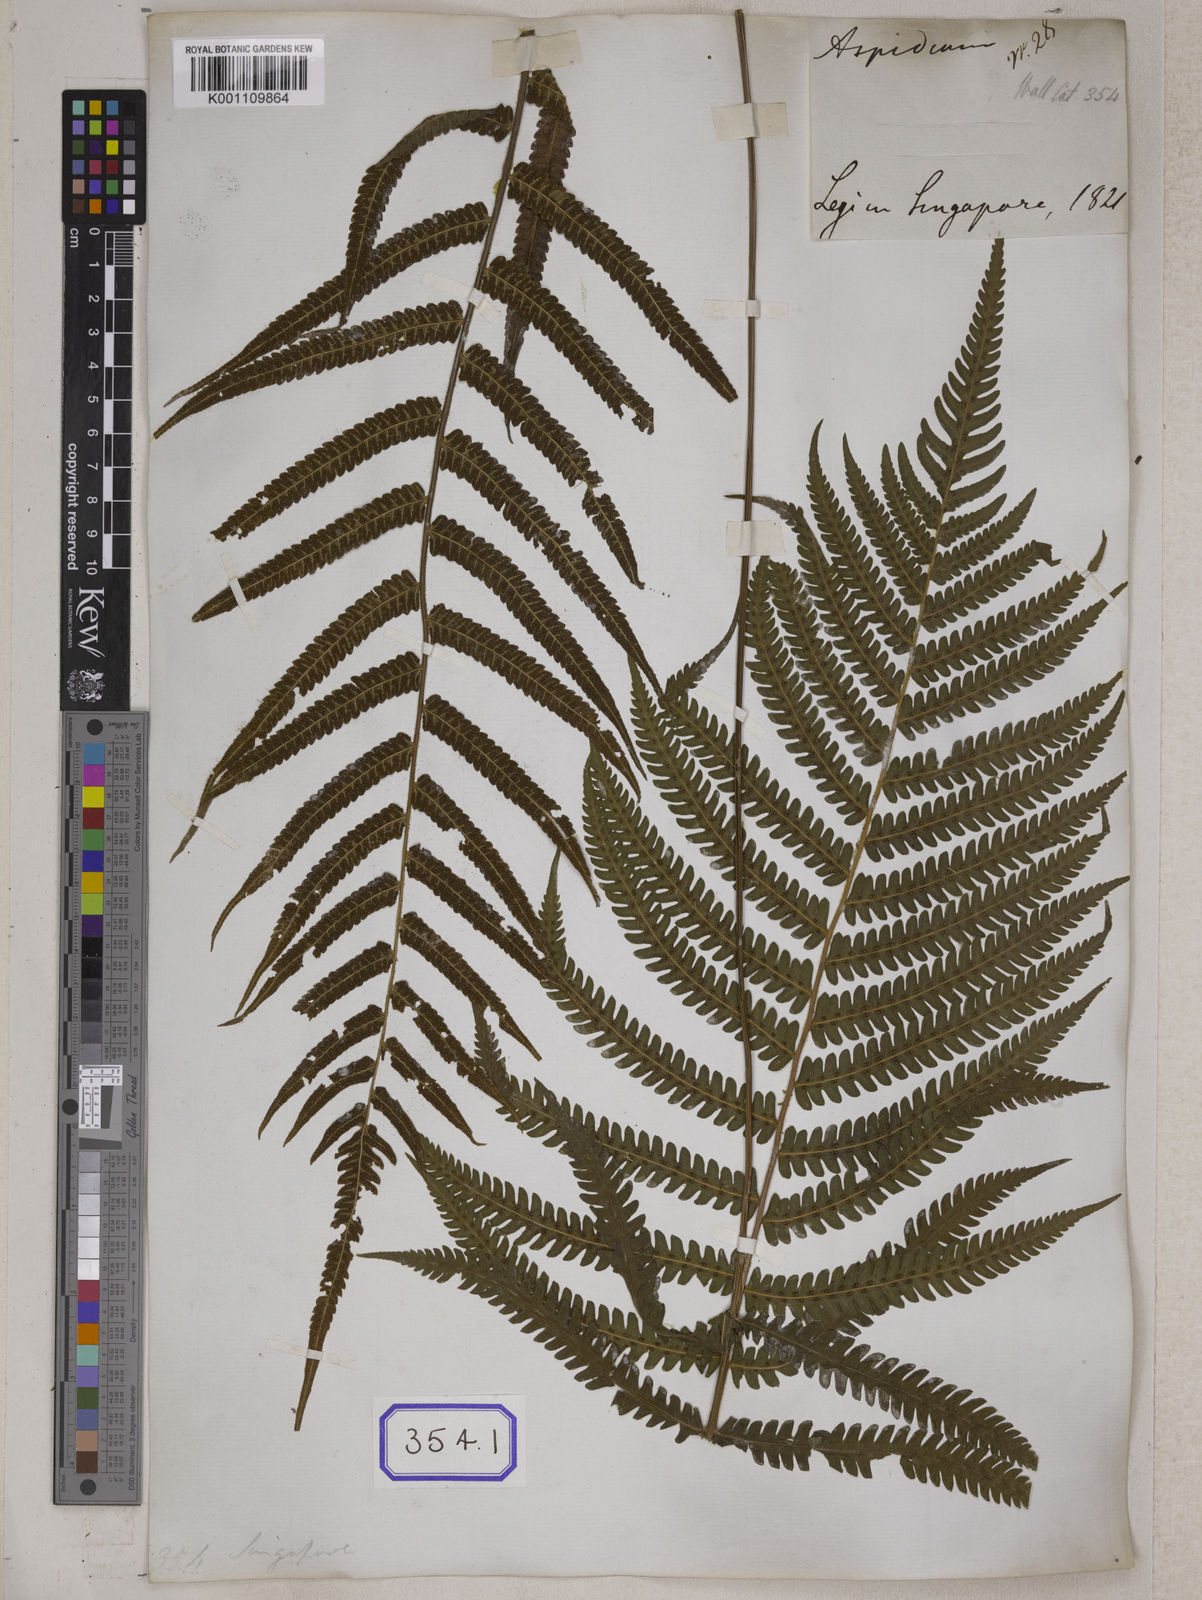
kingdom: Plantae
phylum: Tracheophyta
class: Polypodiopsida
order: Polypodiales
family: Tectariaceae
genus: Tectaria
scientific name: Tectaria Aspidium spec
